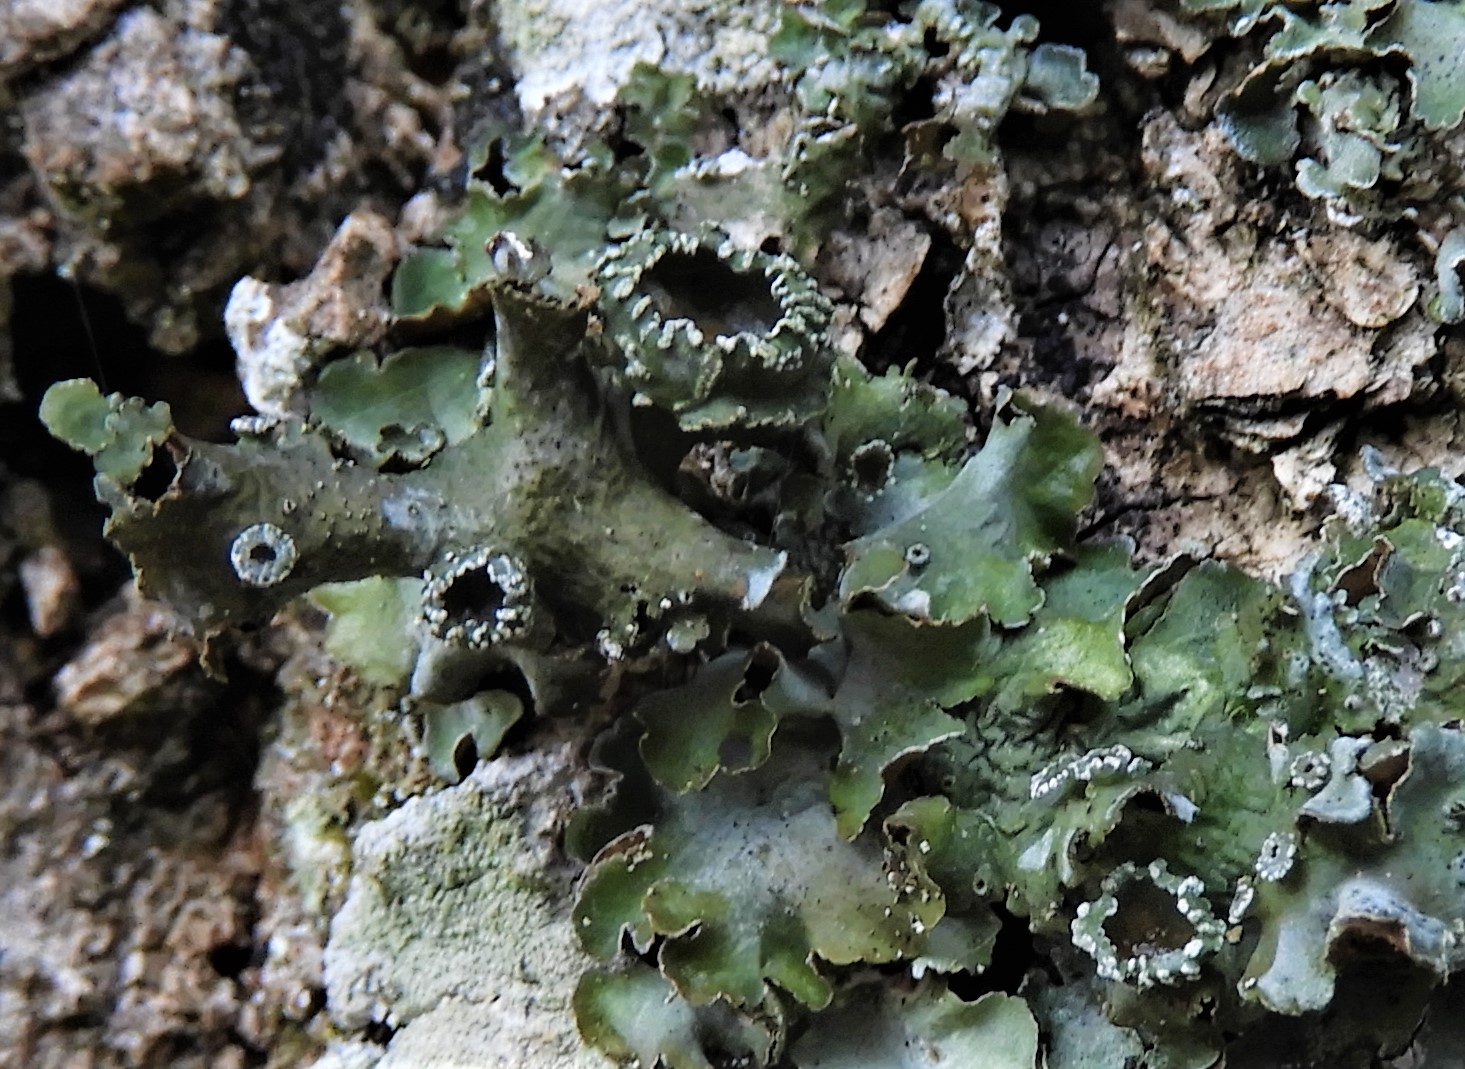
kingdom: Fungi
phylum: Ascomycota
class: Lecanoromycetes
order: Lecanorales
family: Parmeliaceae
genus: Pleurosticta
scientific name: Pleurosticta acetabulum
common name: stor skållav
